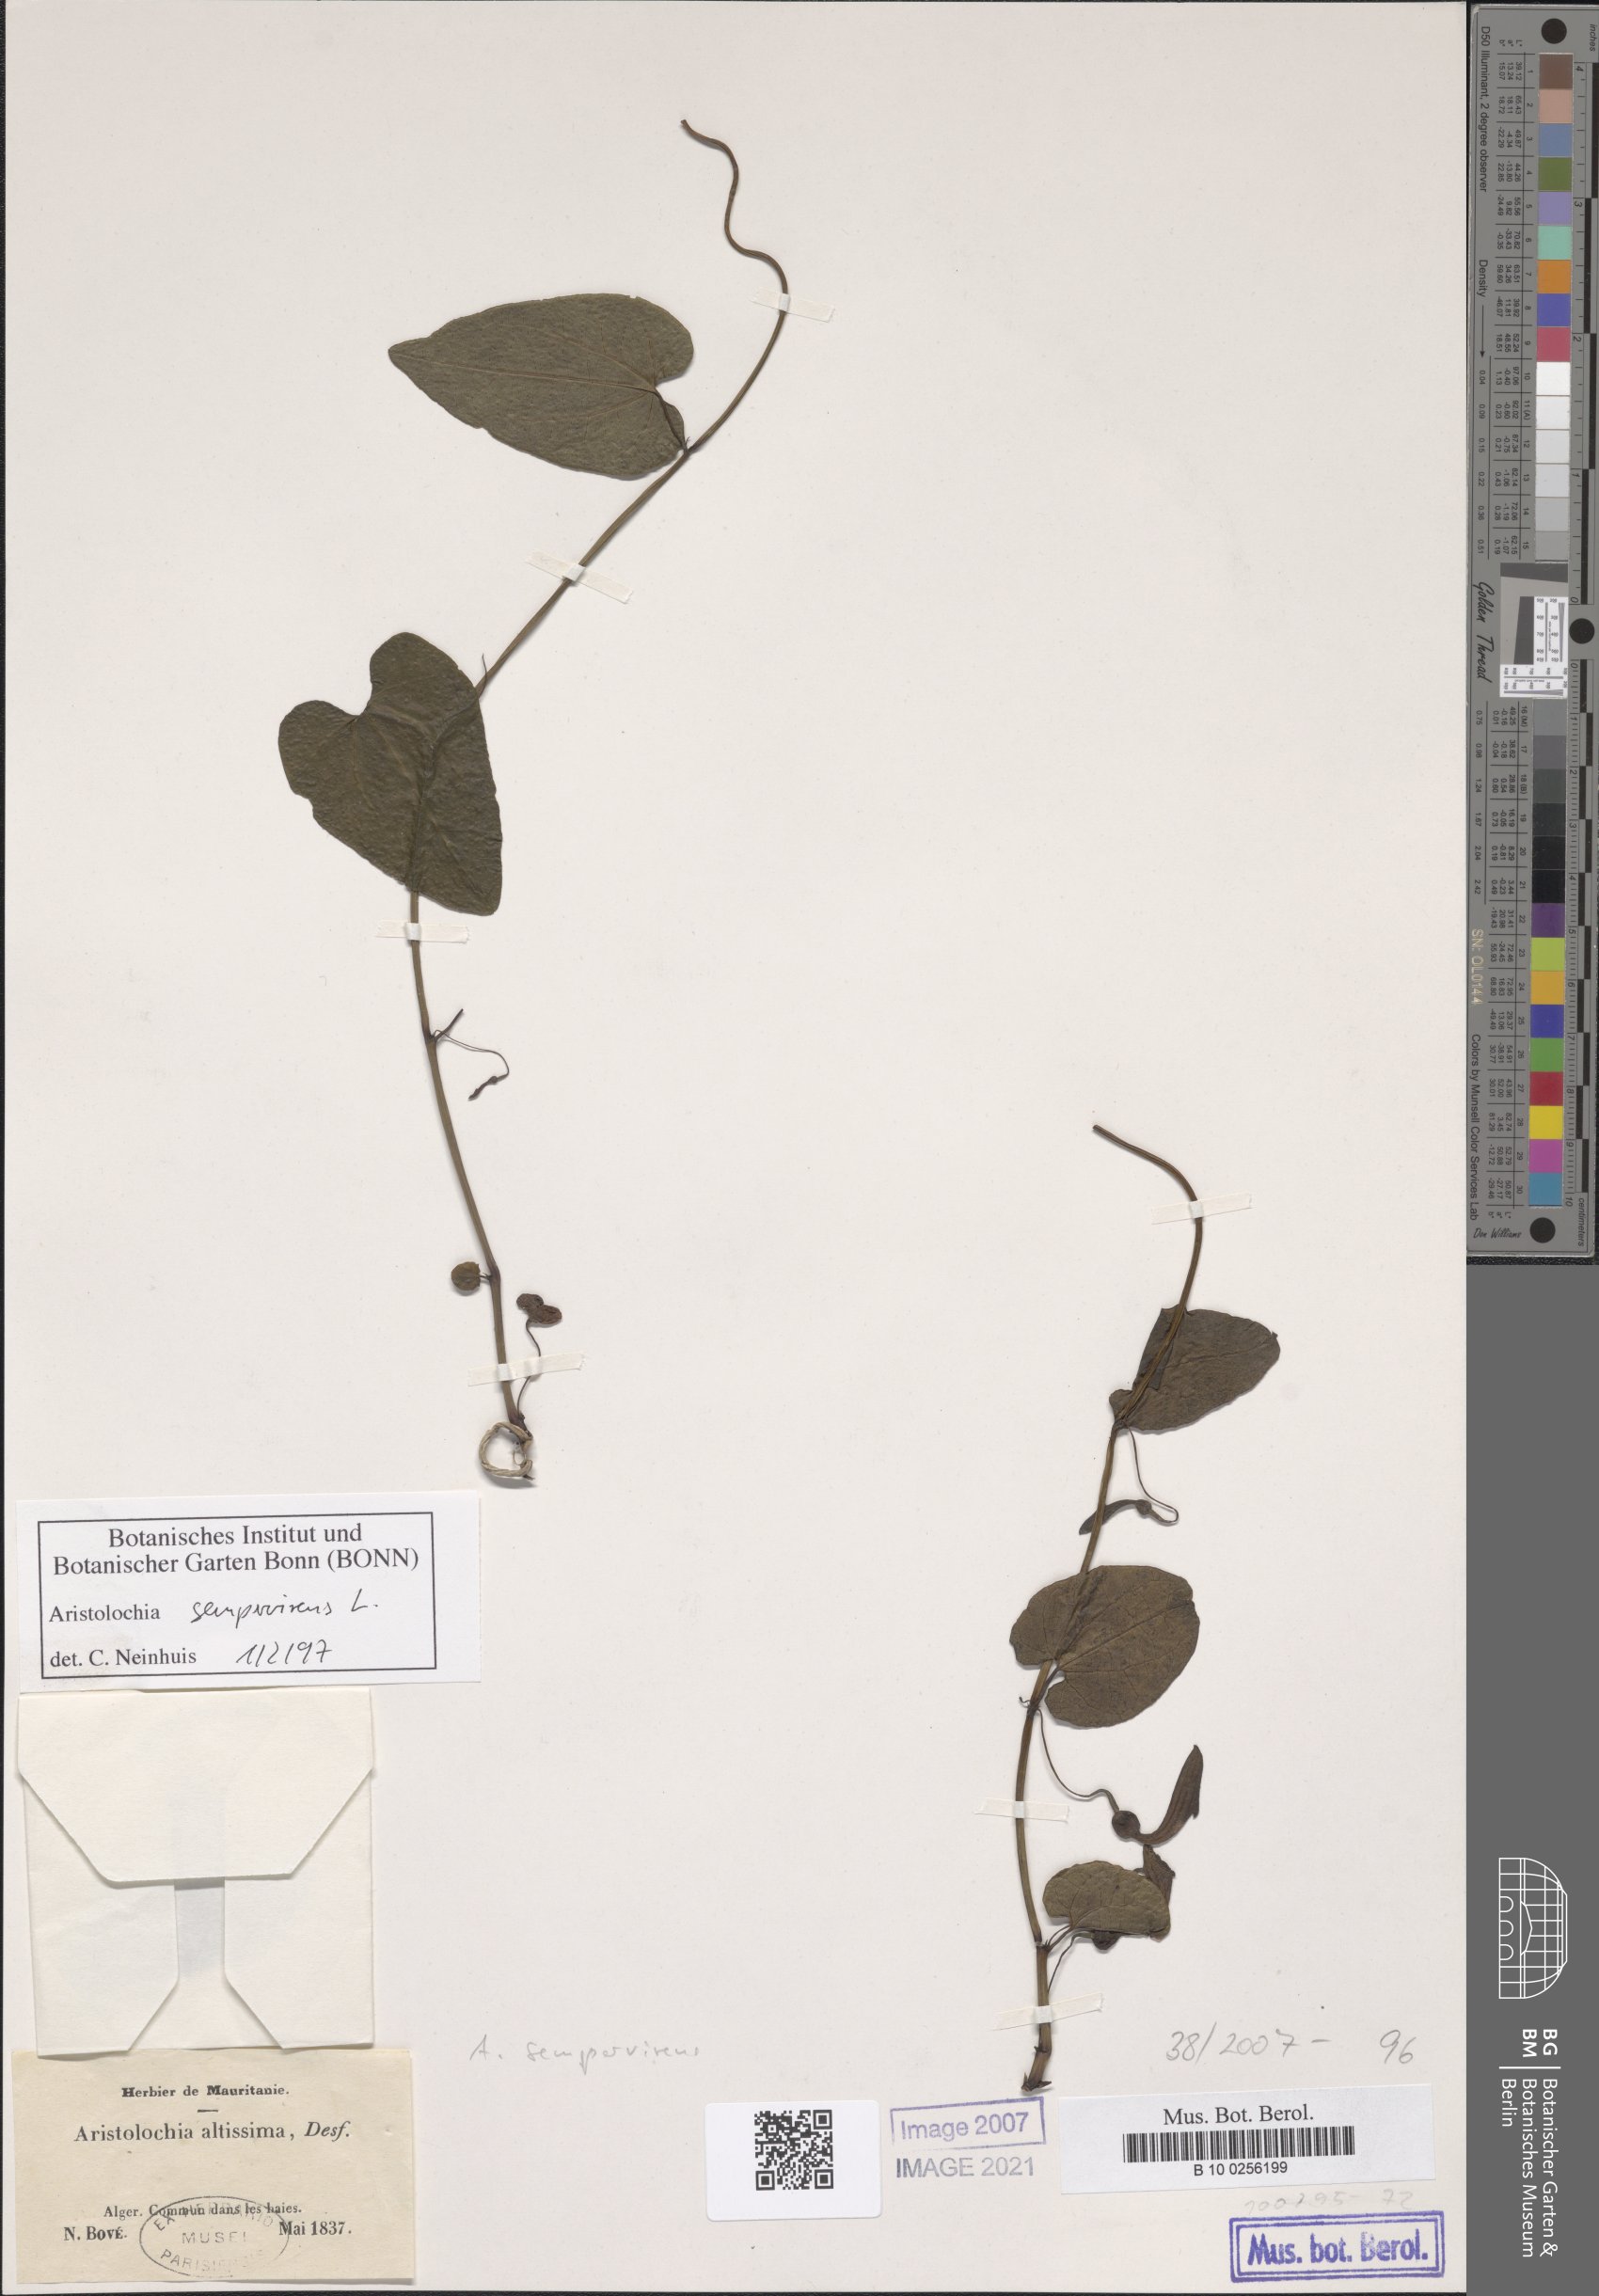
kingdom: Plantae
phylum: Tracheophyta
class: Magnoliopsida
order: Piperales
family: Aristolochiaceae
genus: Aristolochia
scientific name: Aristolochia sempervirens
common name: Long birthwort
